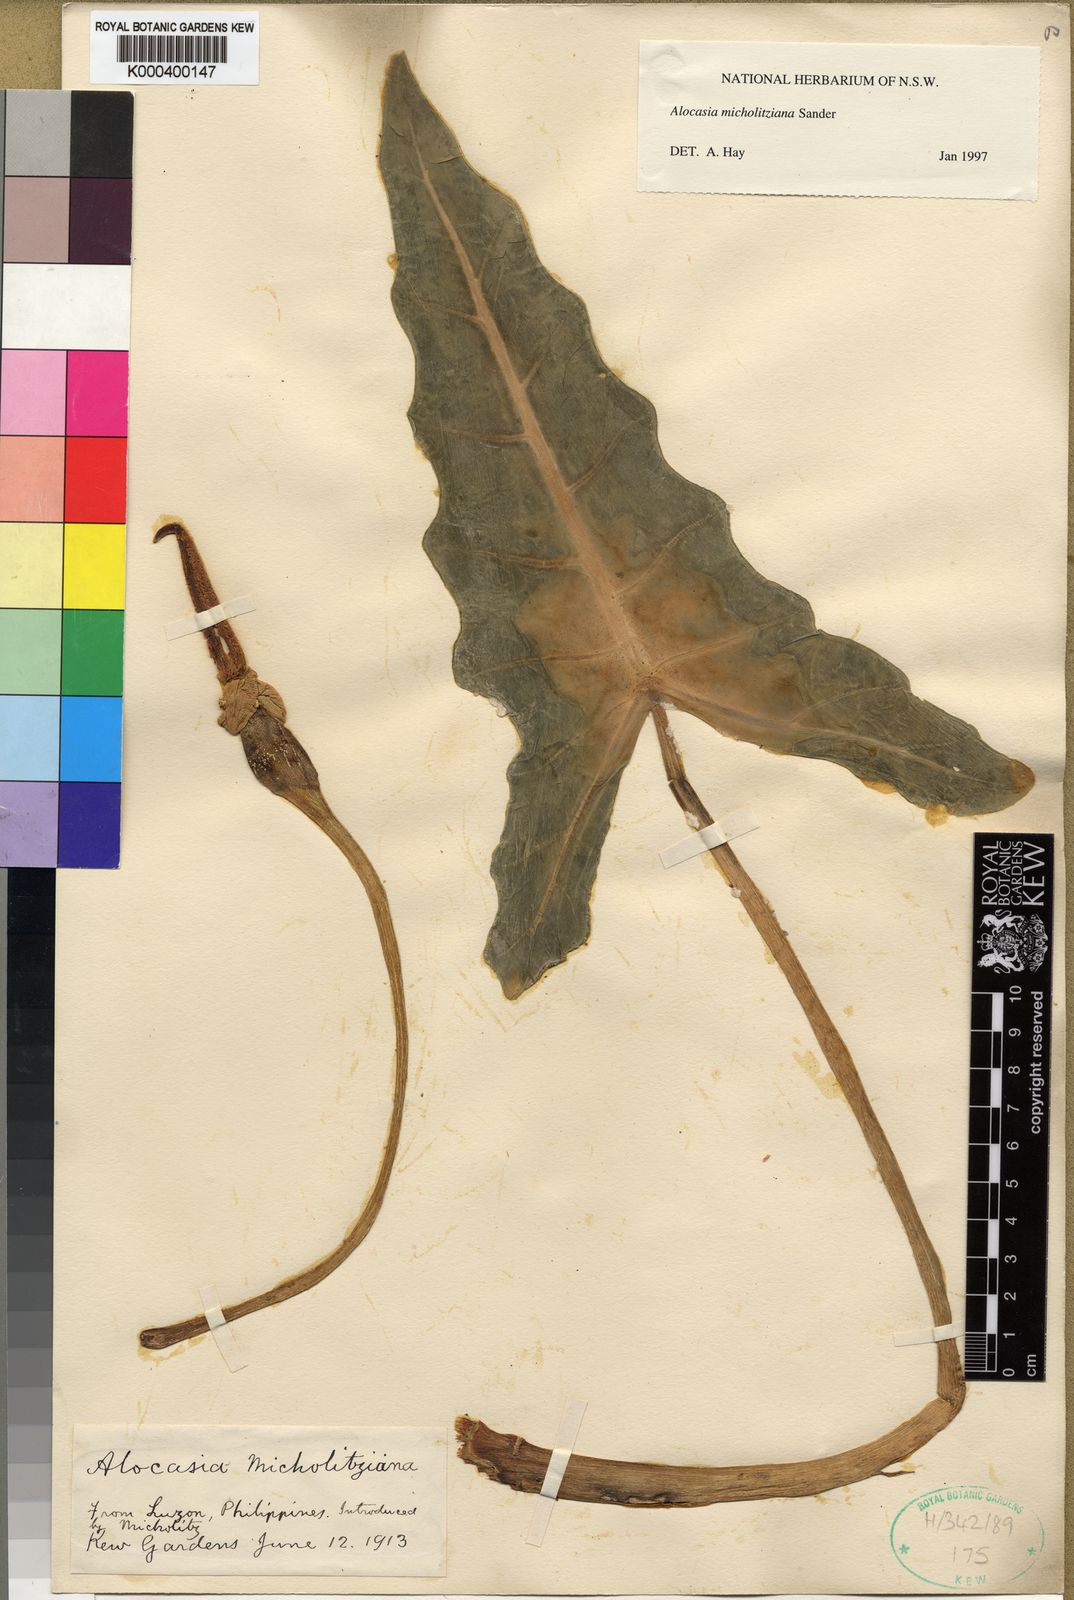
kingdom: Plantae
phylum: Tracheophyta
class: Liliopsida
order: Alismatales
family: Araceae
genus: Alocasia
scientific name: Alocasia micholitziana
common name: Green-velvet alocasia
